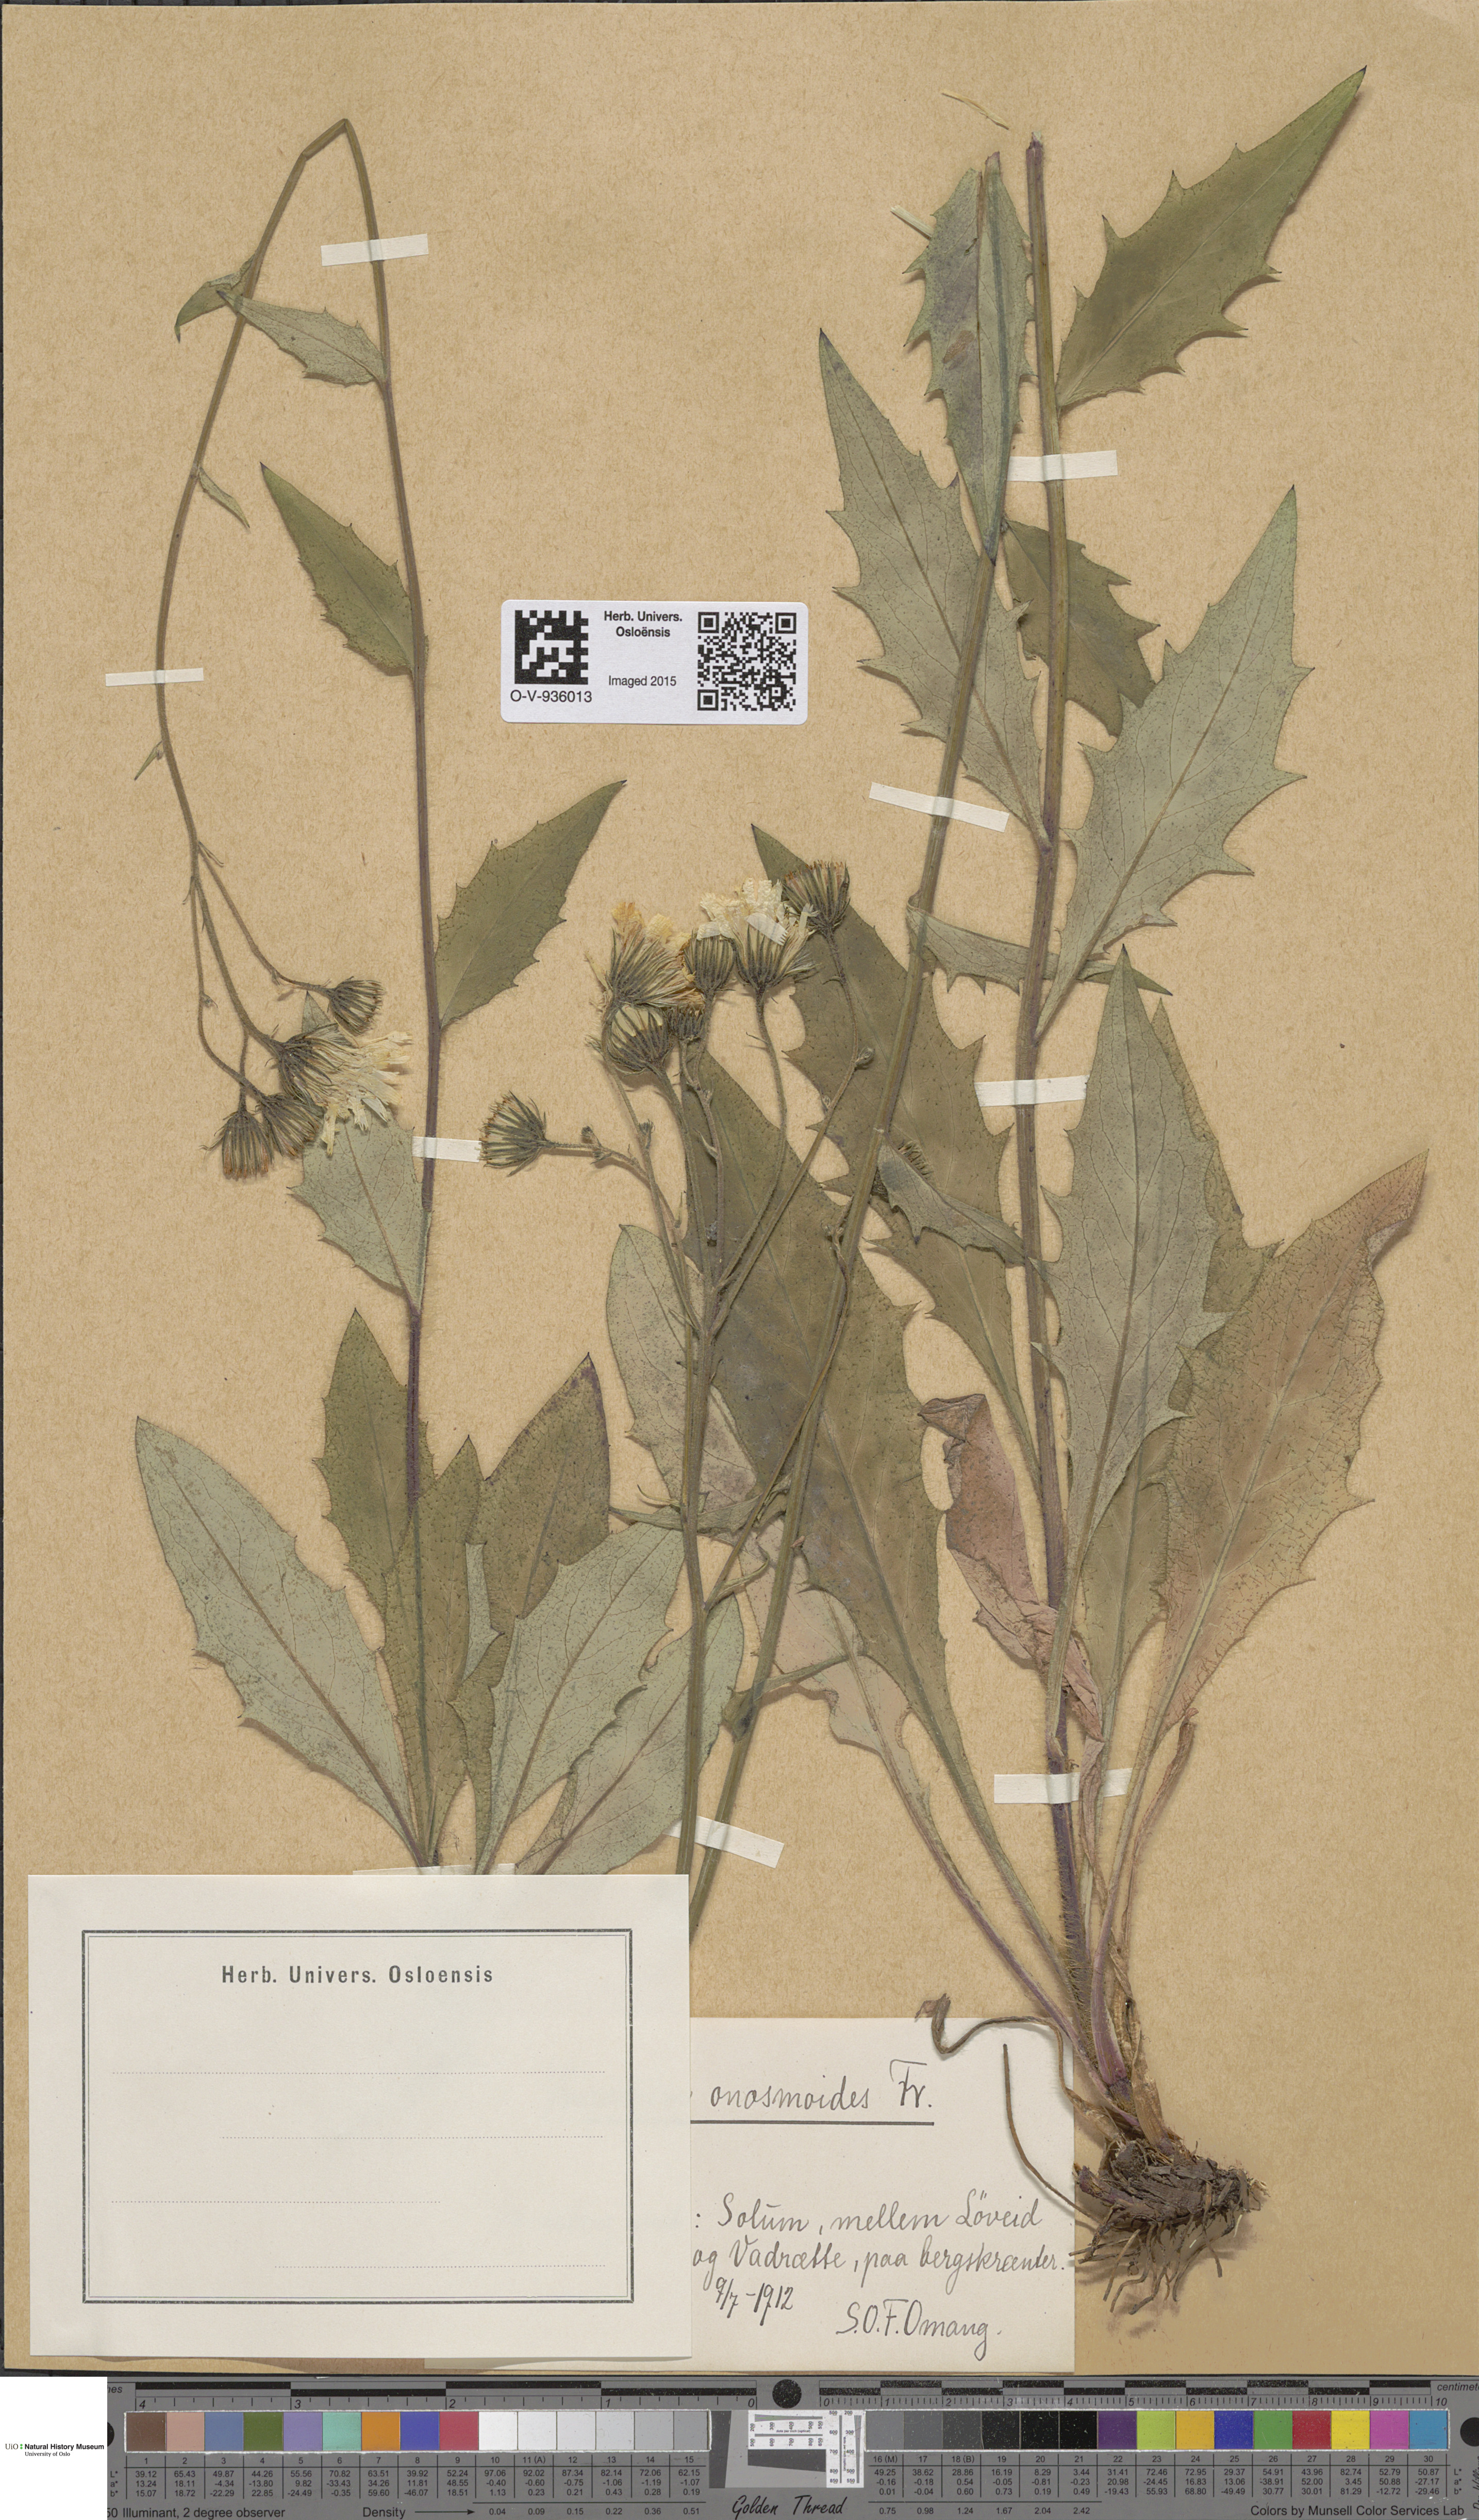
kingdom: Plantae
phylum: Tracheophyta
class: Magnoliopsida
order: Asterales
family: Asteraceae
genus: Hieracium
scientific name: Hieracium onosmoides
